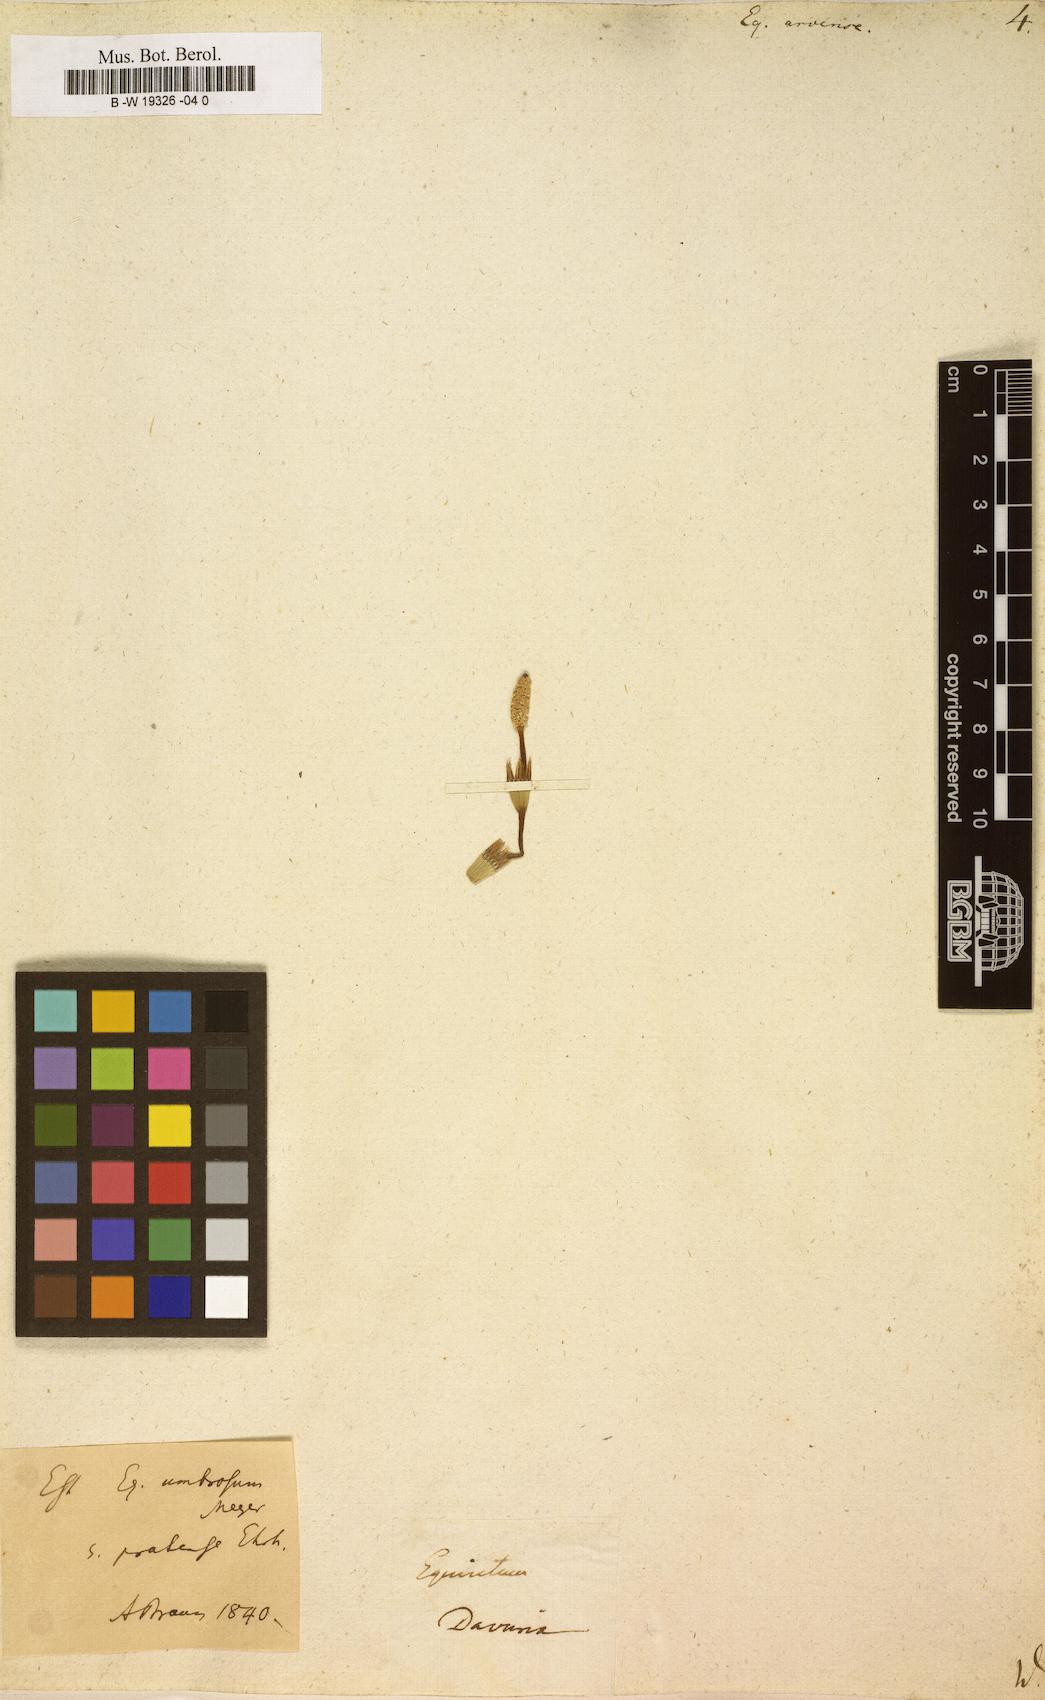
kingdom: Plantae
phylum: Tracheophyta
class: Polypodiopsida
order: Equisetales
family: Equisetaceae
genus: Equisetum
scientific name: Equisetum arvense
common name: Field horsetail
